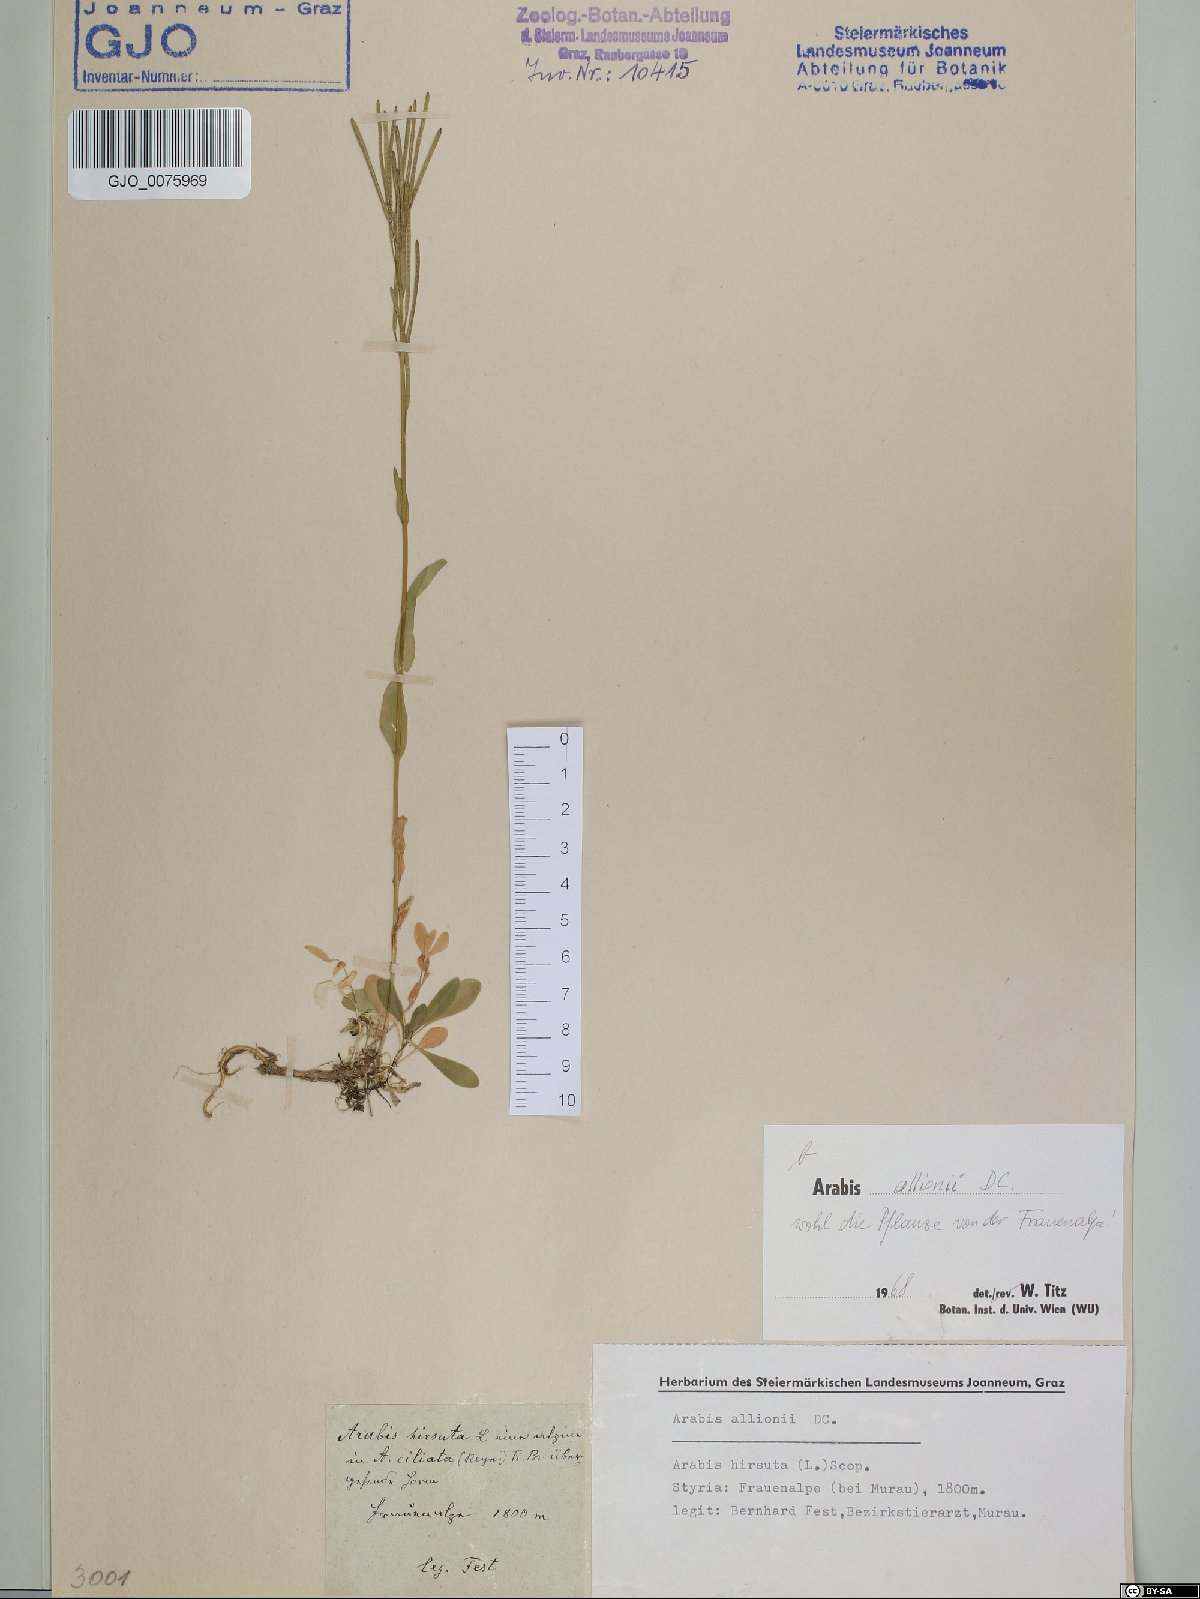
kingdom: Plantae
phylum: Tracheophyta
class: Magnoliopsida
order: Brassicales
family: Brassicaceae
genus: Arabis
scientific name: Arabis allionii
